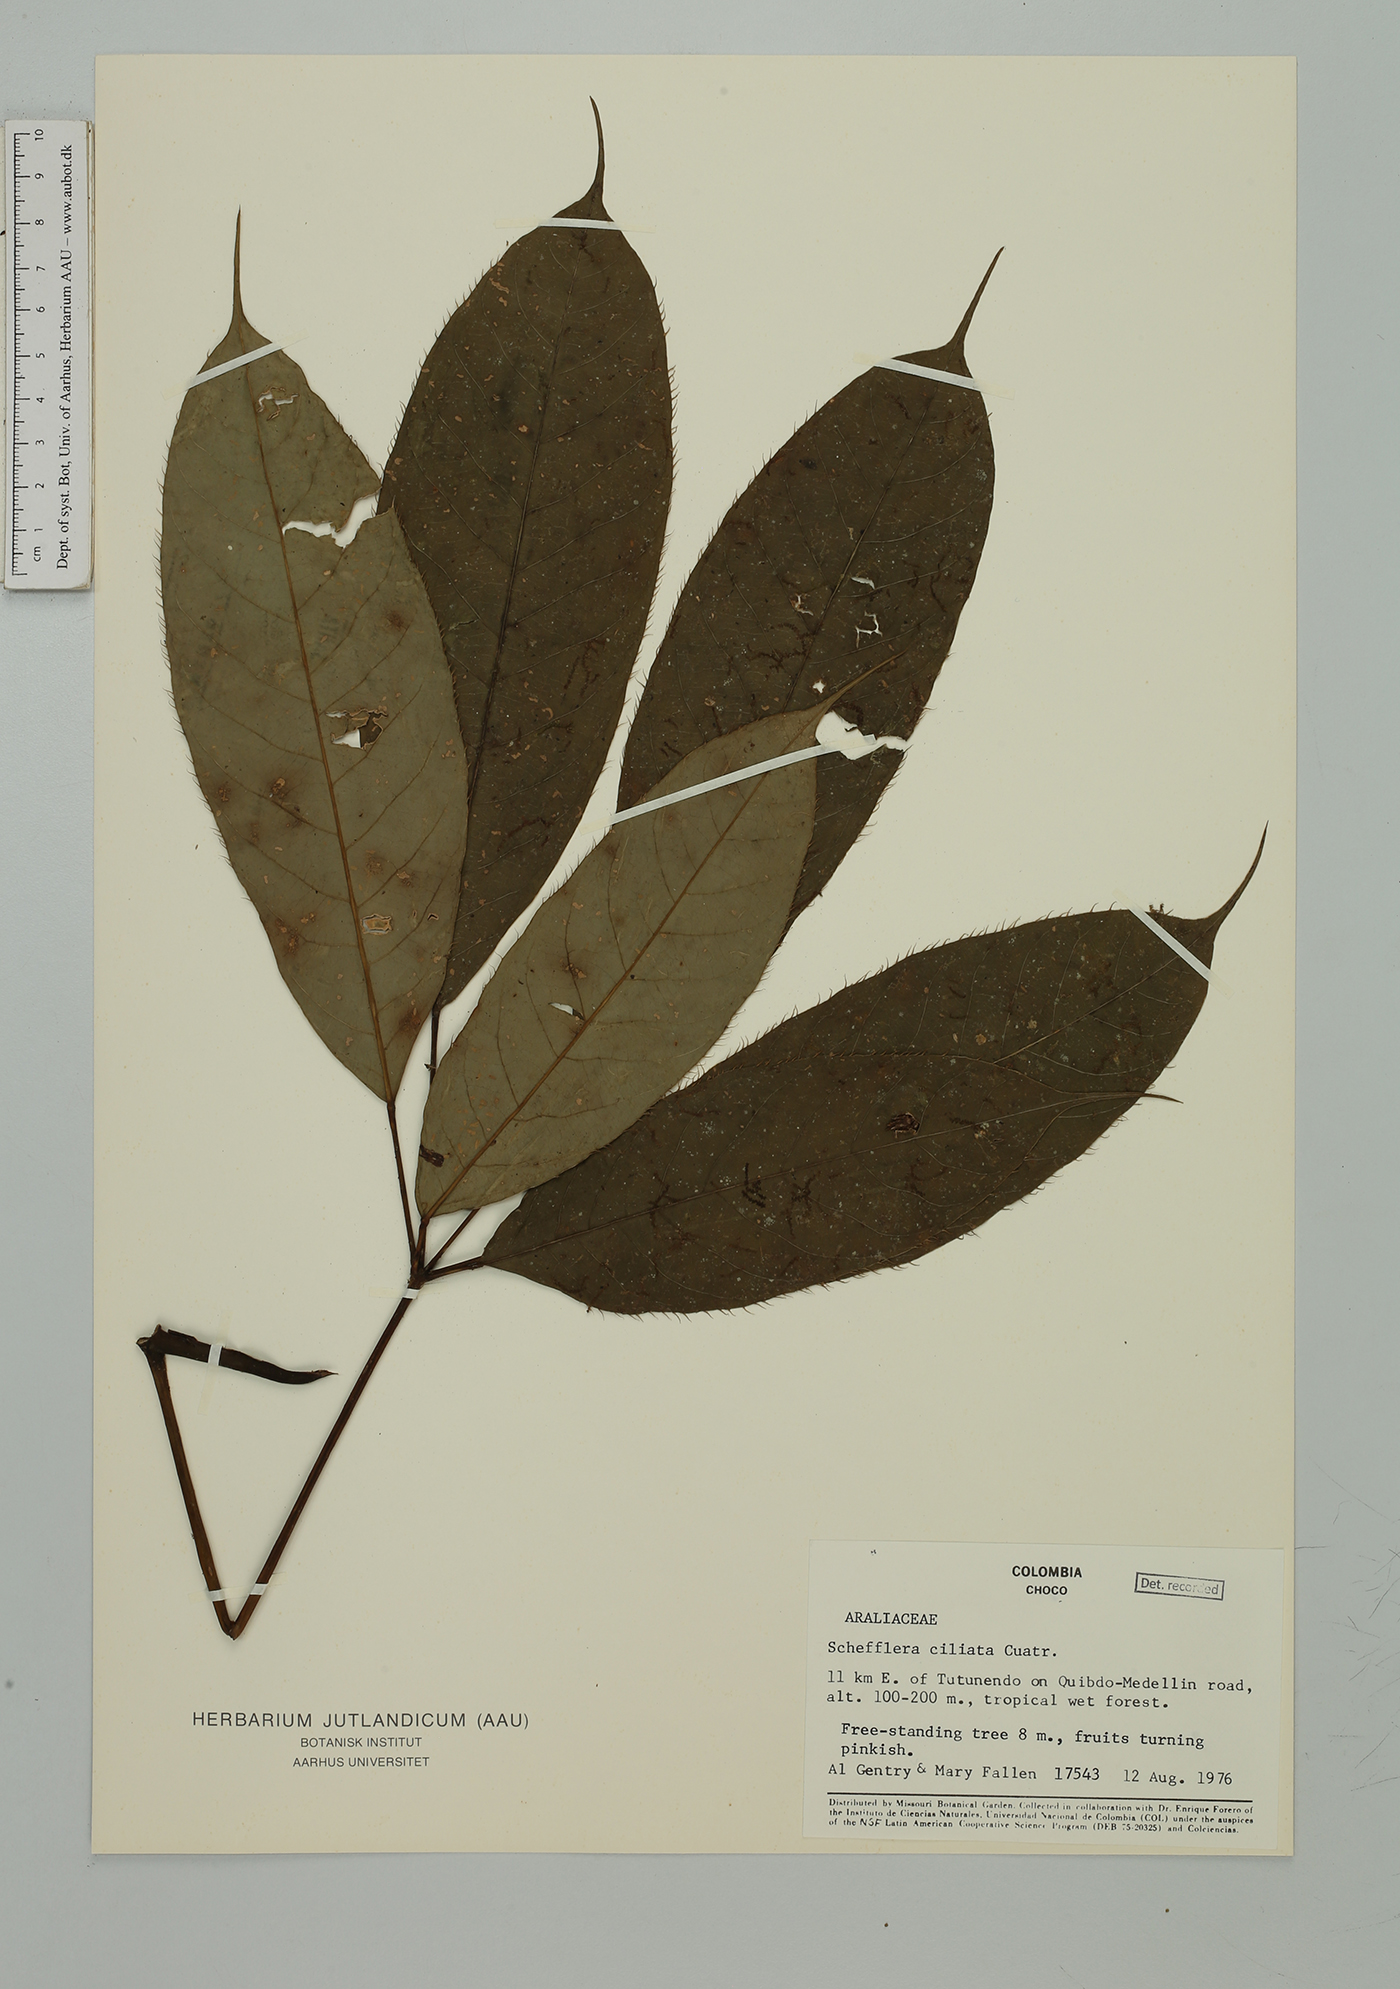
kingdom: Plantae
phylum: Tracheophyta
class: Magnoliopsida
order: Apiales
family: Araliaceae
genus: Sciodaphyllum
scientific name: Sciodaphyllum ciliatum
